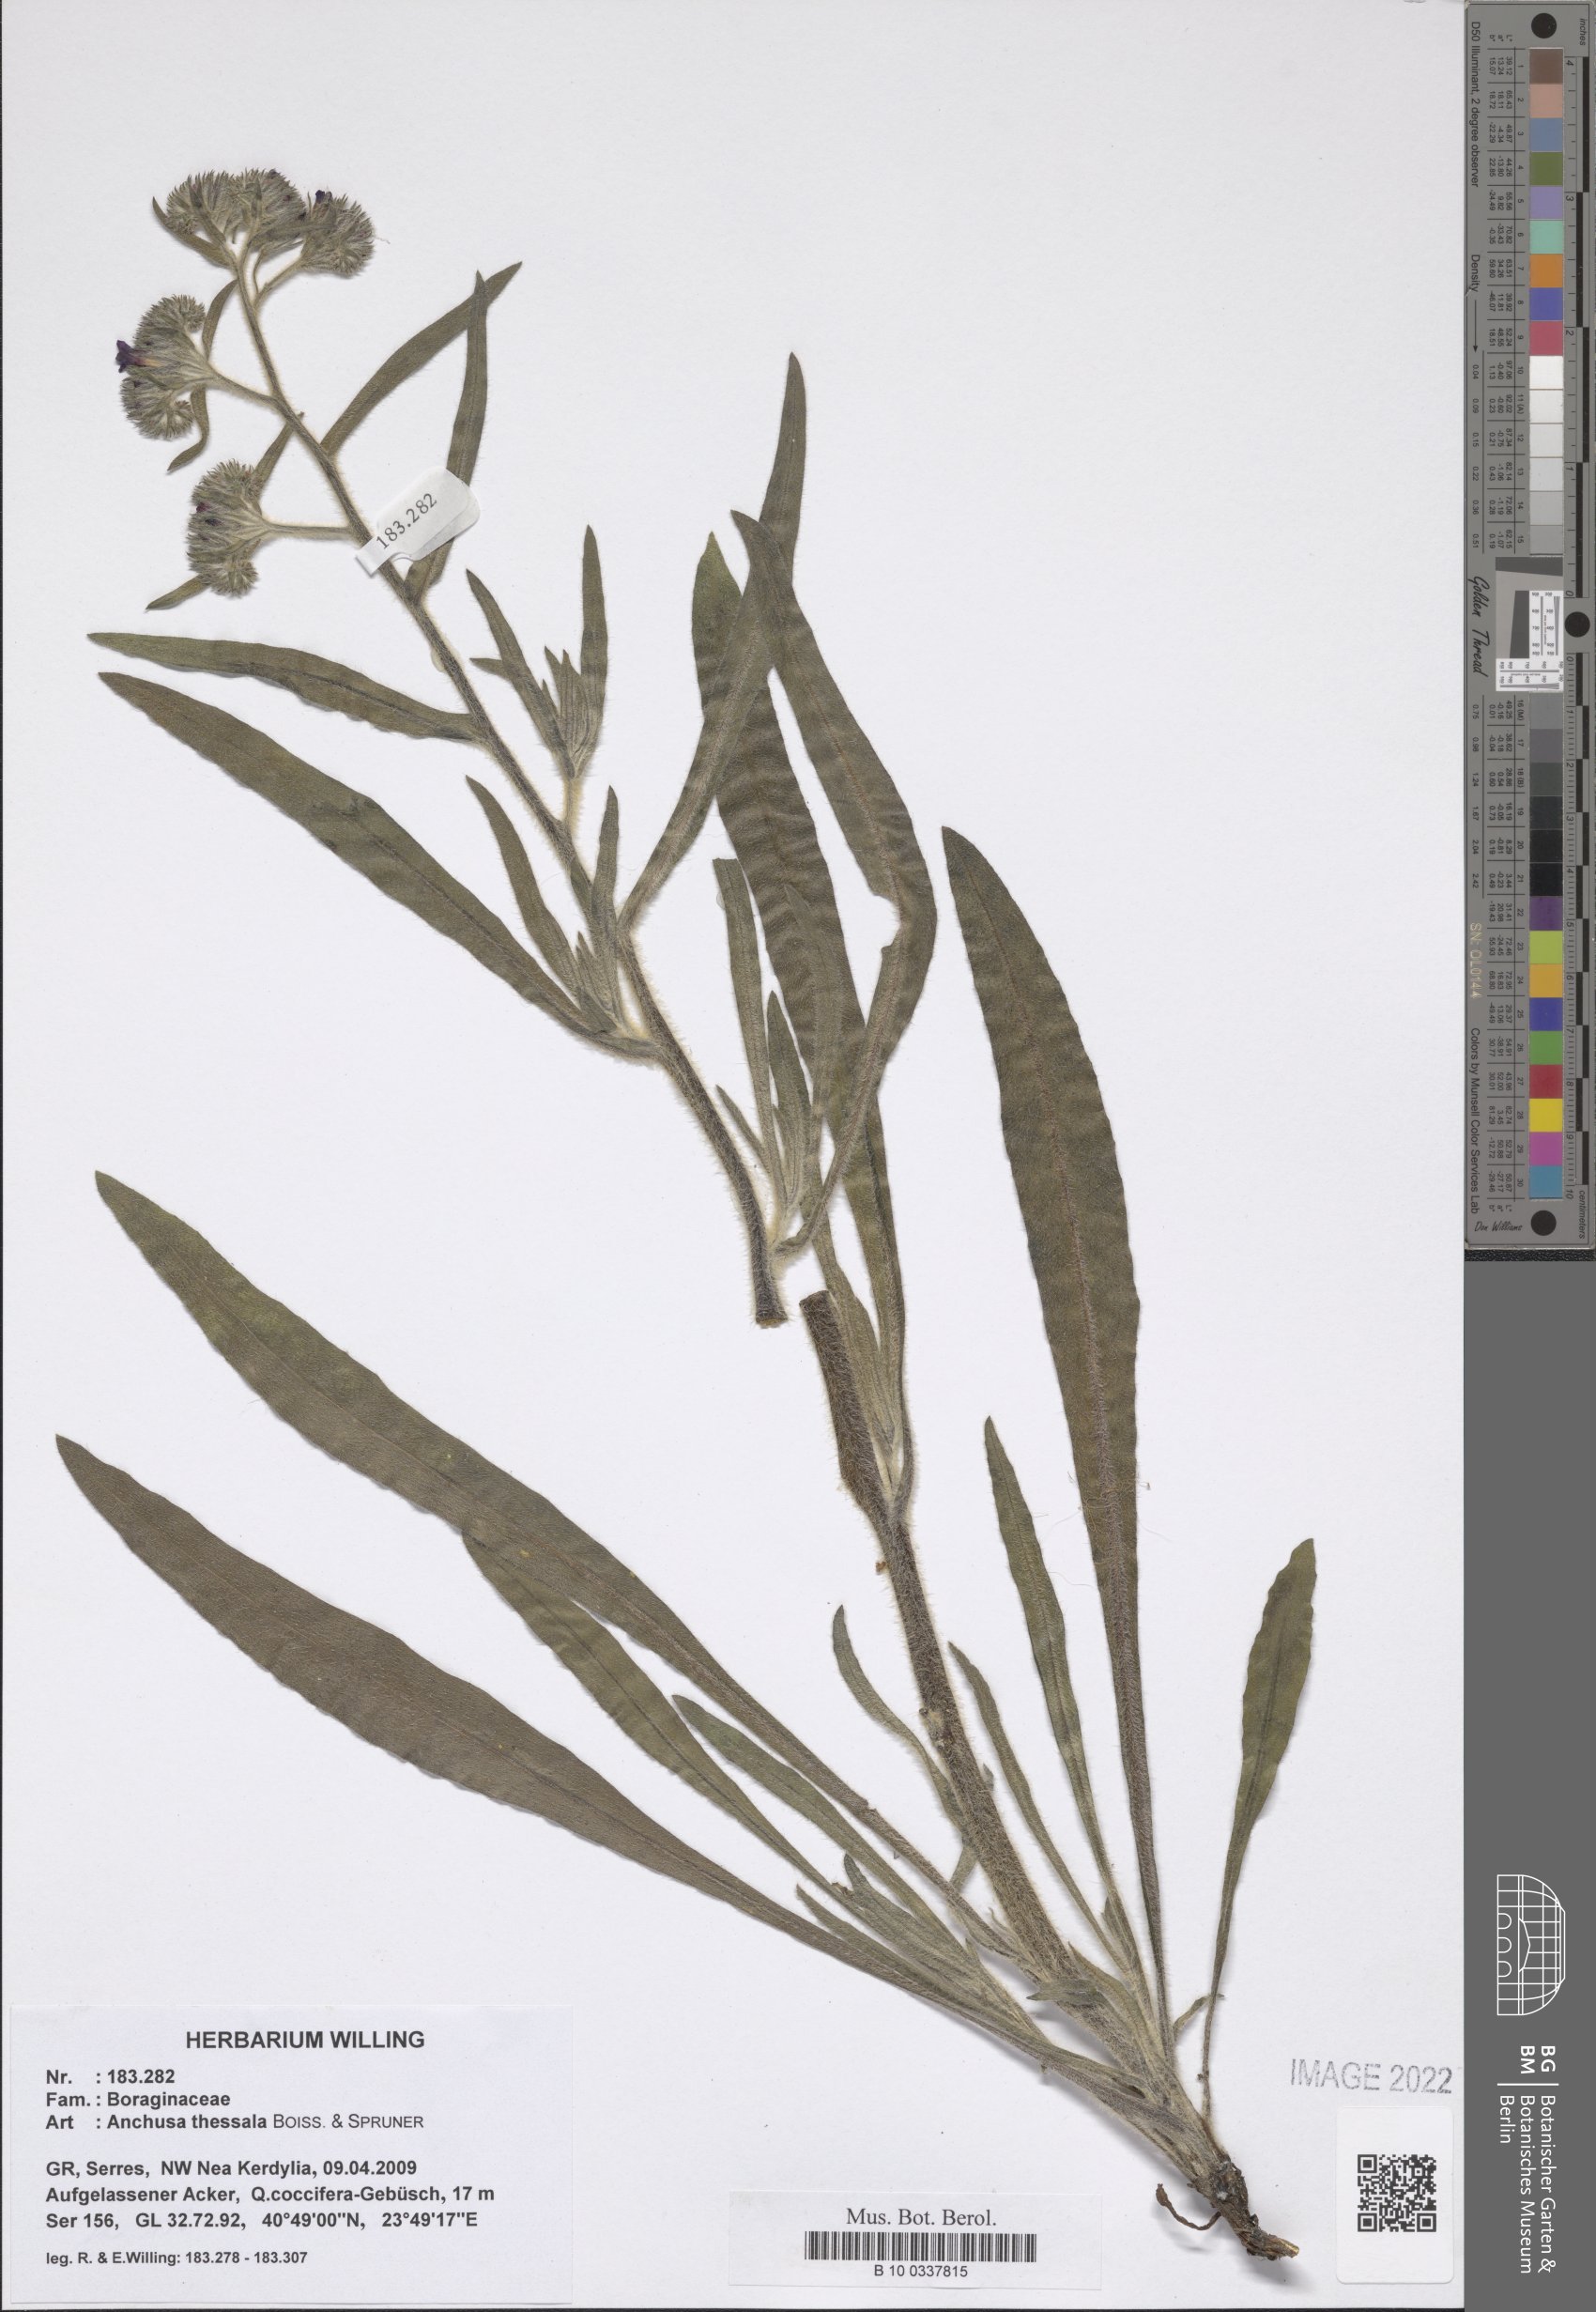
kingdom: Plantae
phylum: Tracheophyta
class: Magnoliopsida
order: Boraginales
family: Boraginaceae
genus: Anchusa
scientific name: Anchusa thessala
